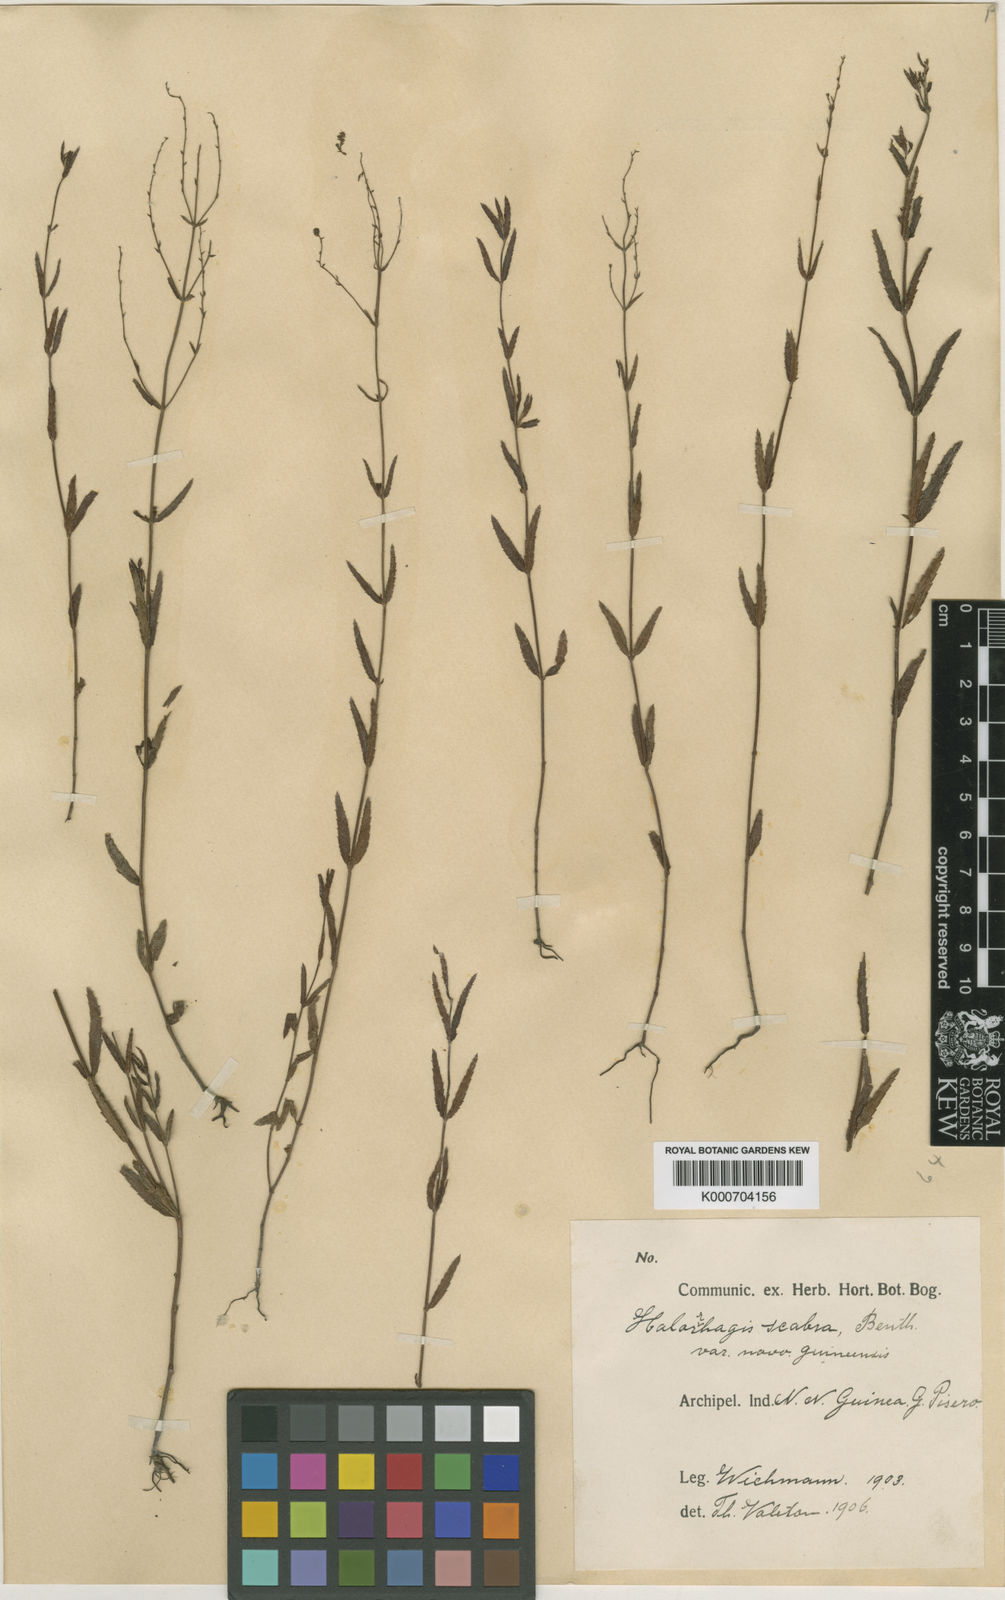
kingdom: Plantae
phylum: Tracheophyta
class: Magnoliopsida
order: Saxifragales
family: Haloragaceae
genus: Gonocarpus
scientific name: Gonocarpus
